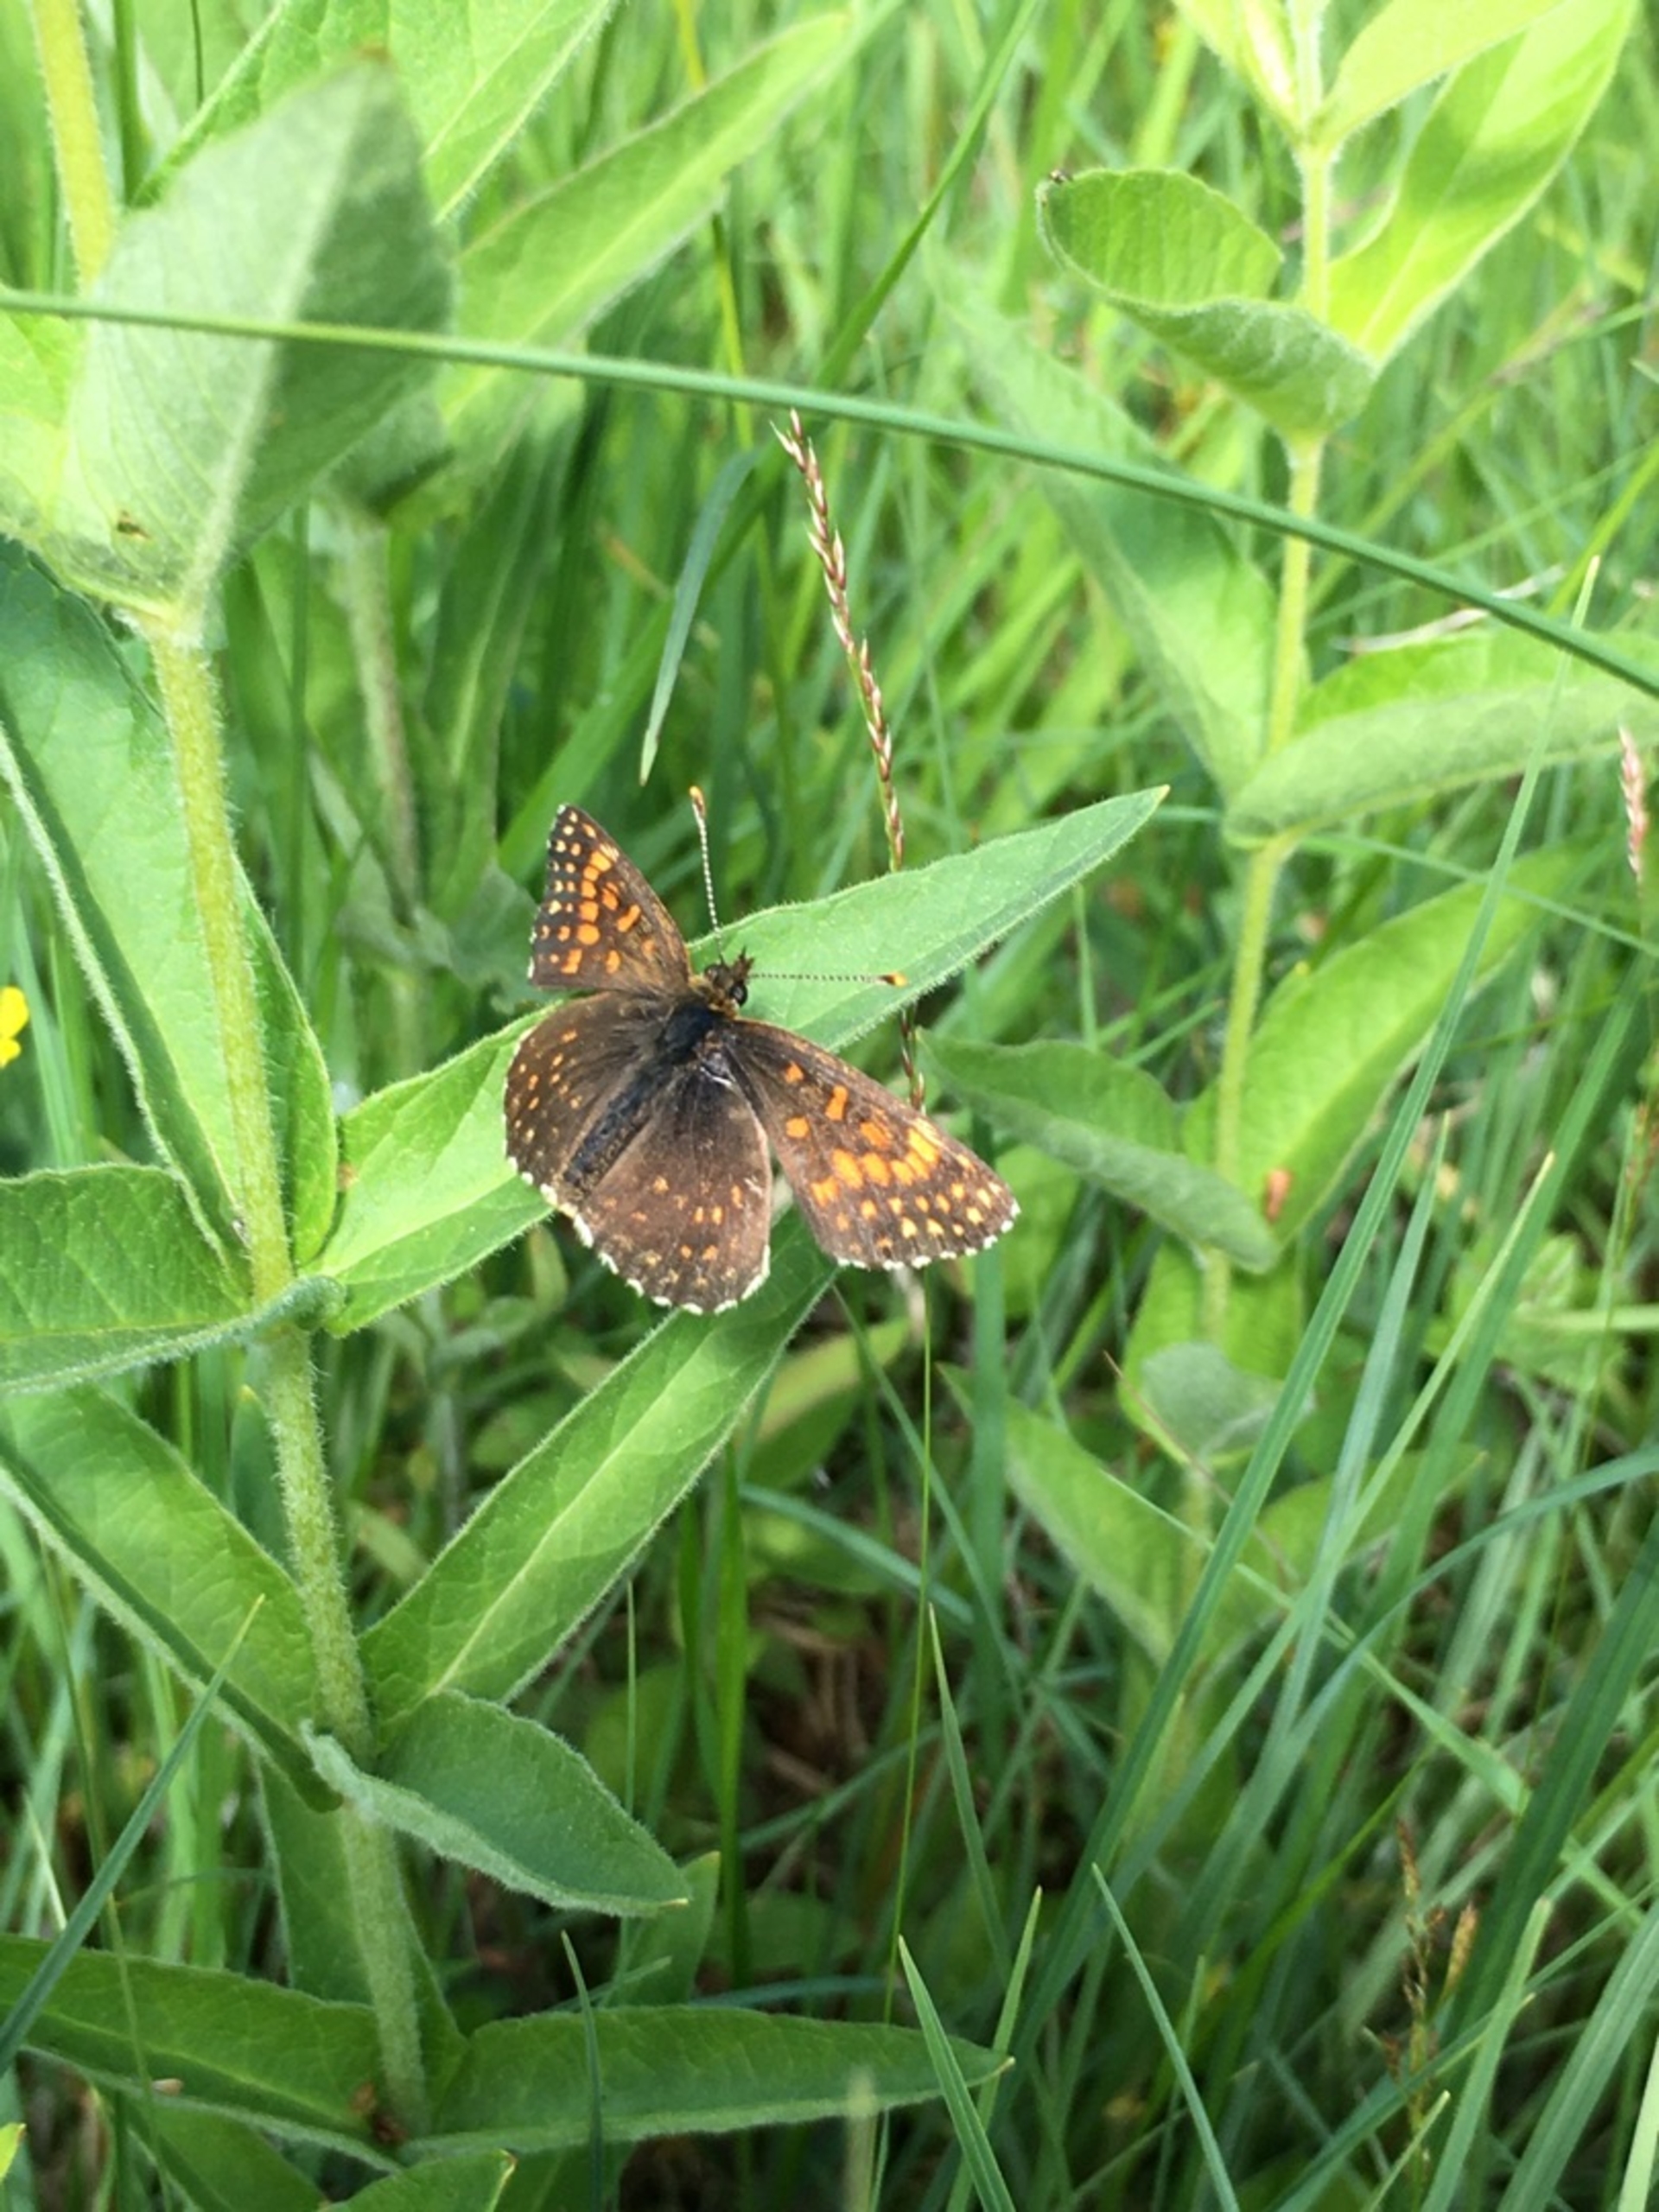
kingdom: Animalia
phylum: Arthropoda
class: Insecta
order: Lepidoptera
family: Nymphalidae
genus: Melitaea
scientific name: Melitaea diamina
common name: Mørk pletvinge
